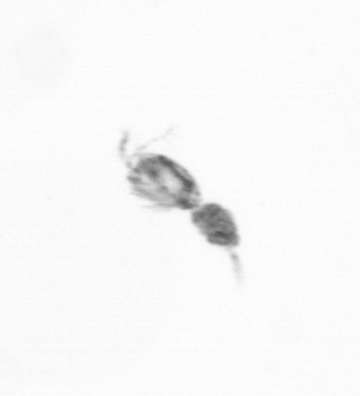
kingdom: Animalia
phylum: Arthropoda
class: Copepoda
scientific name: Copepoda
